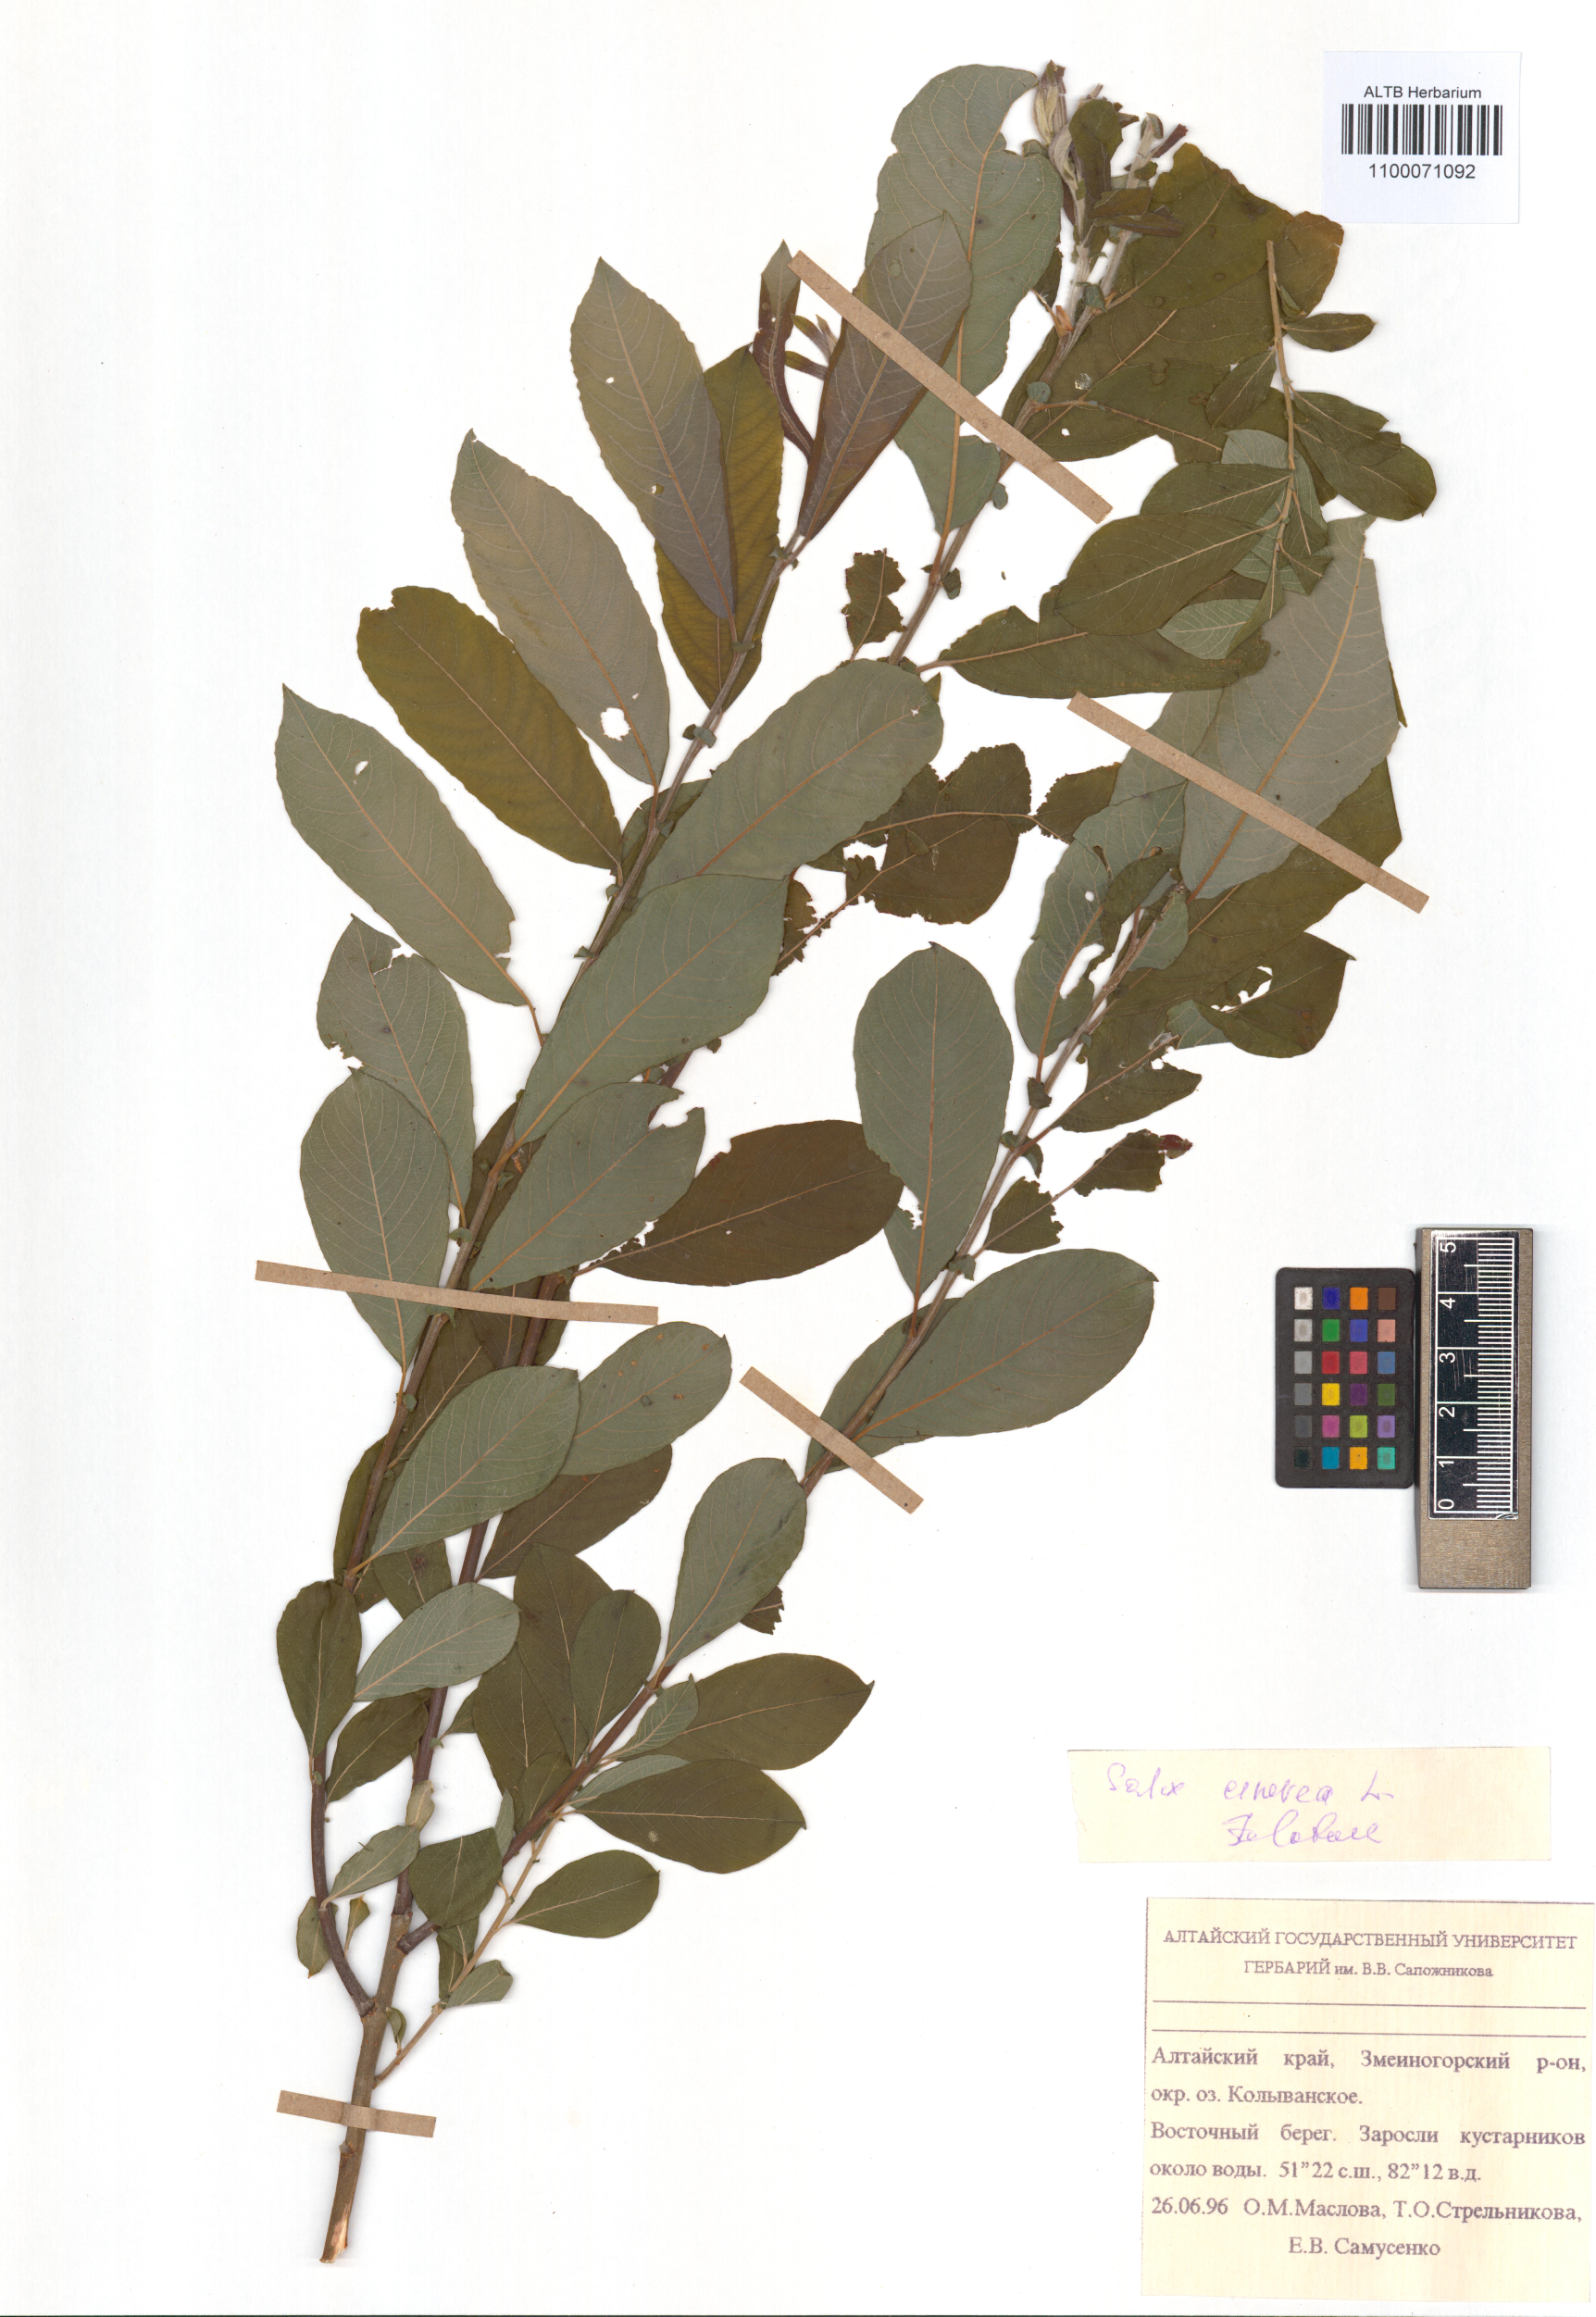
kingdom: Plantae
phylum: Tracheophyta
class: Magnoliopsida
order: Malpighiales
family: Salicaceae
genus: Salix
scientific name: Salix cinerea
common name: Common sallow
